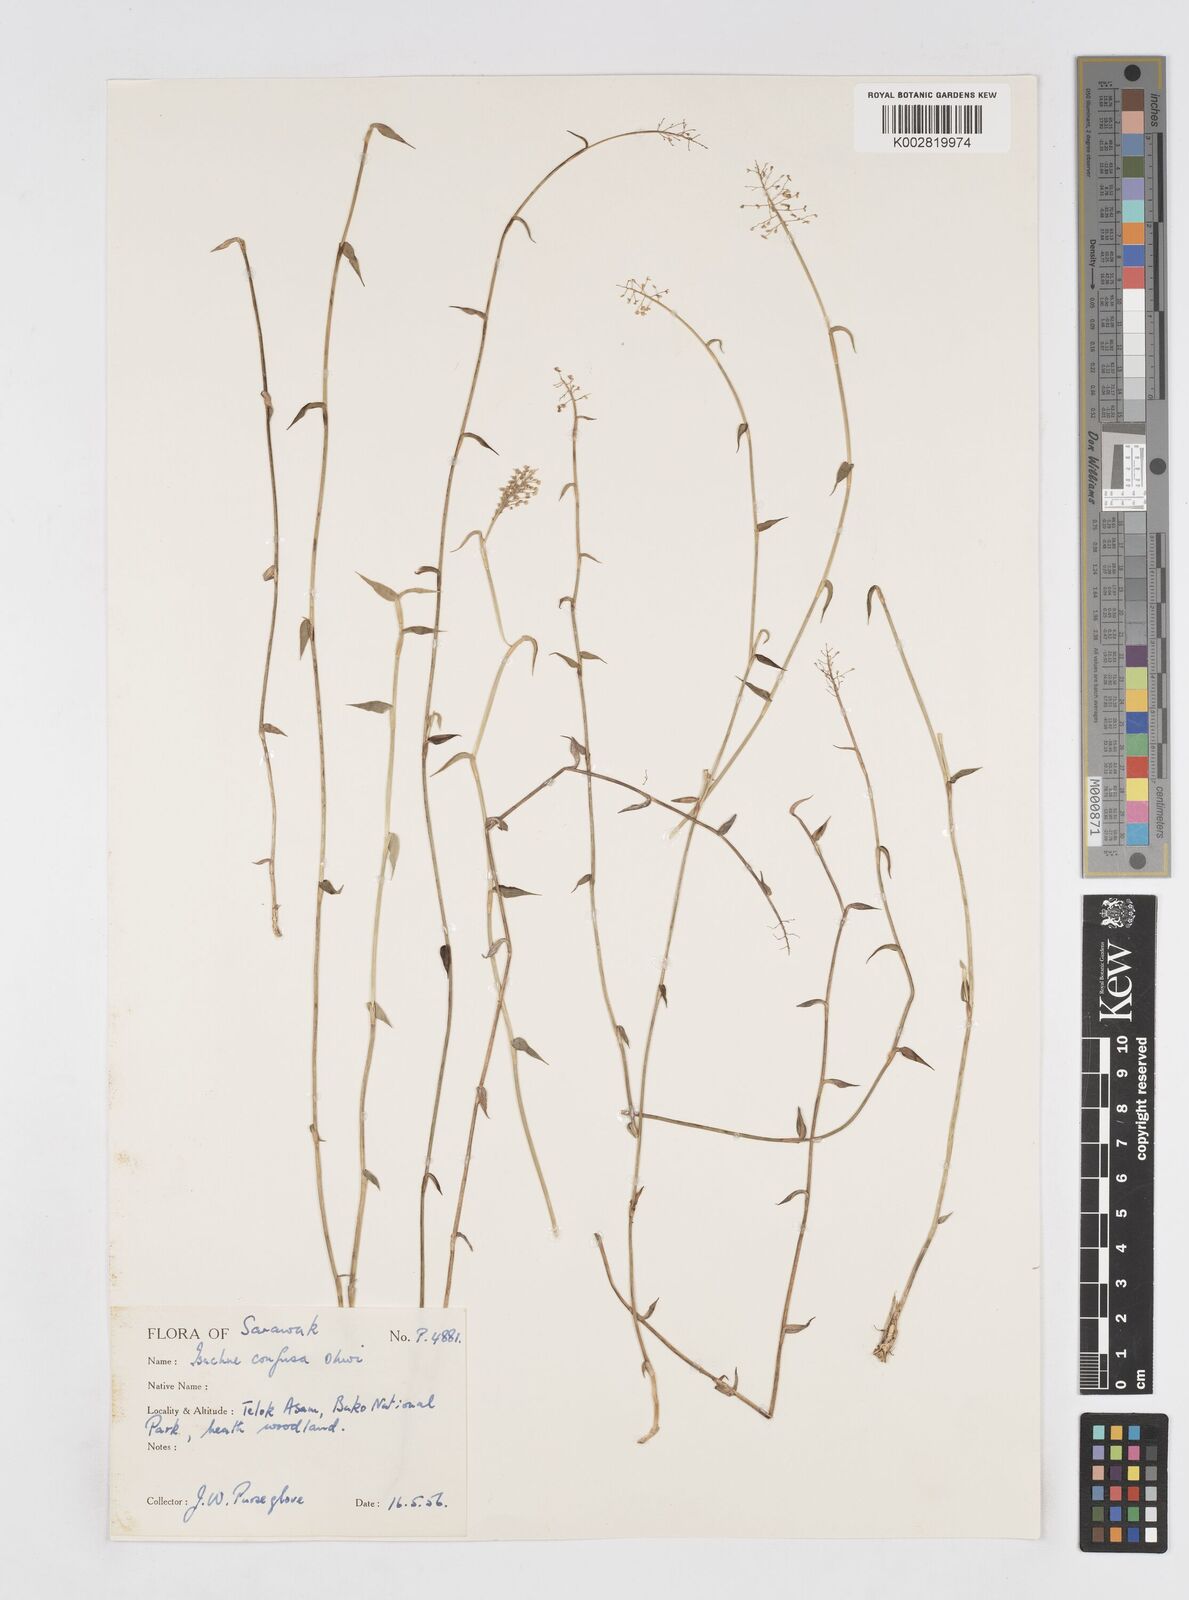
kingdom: Plantae
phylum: Tracheophyta
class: Liliopsida
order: Poales
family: Poaceae
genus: Isachne
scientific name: Isachne confusa
